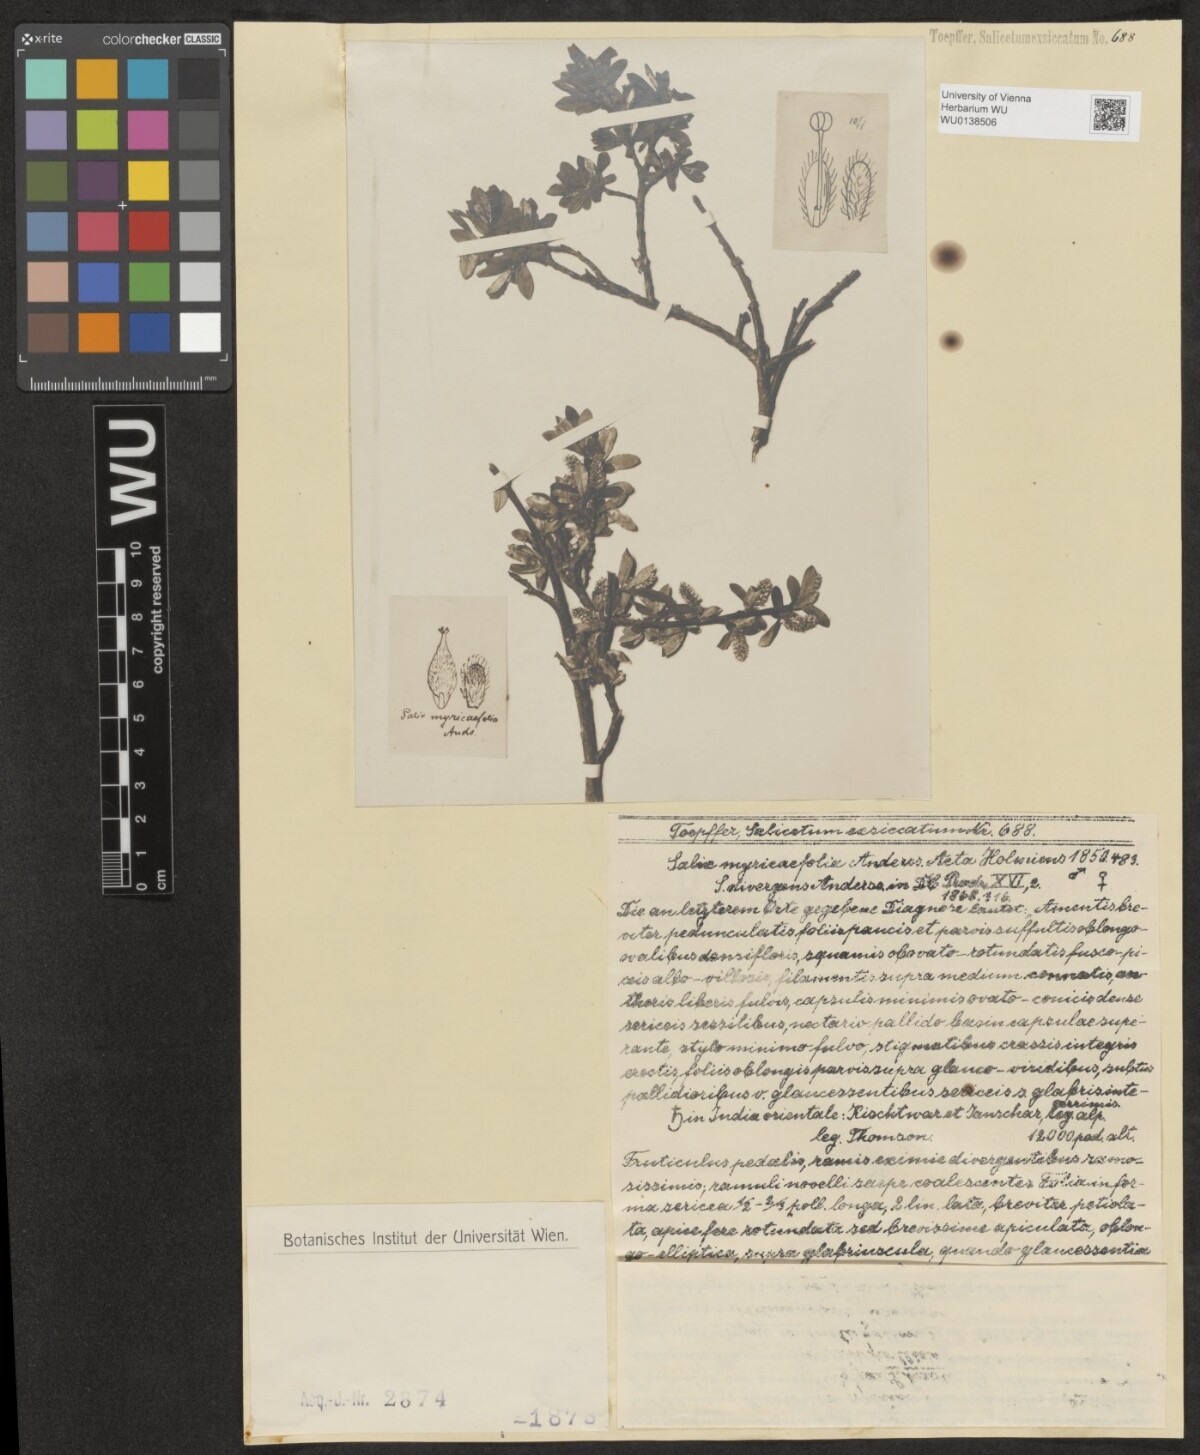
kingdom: Plantae
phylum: Tracheophyta
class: Magnoliopsida
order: Malpighiales
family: Salicaceae
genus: Salix
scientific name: Salix caesia
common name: Blue willow
